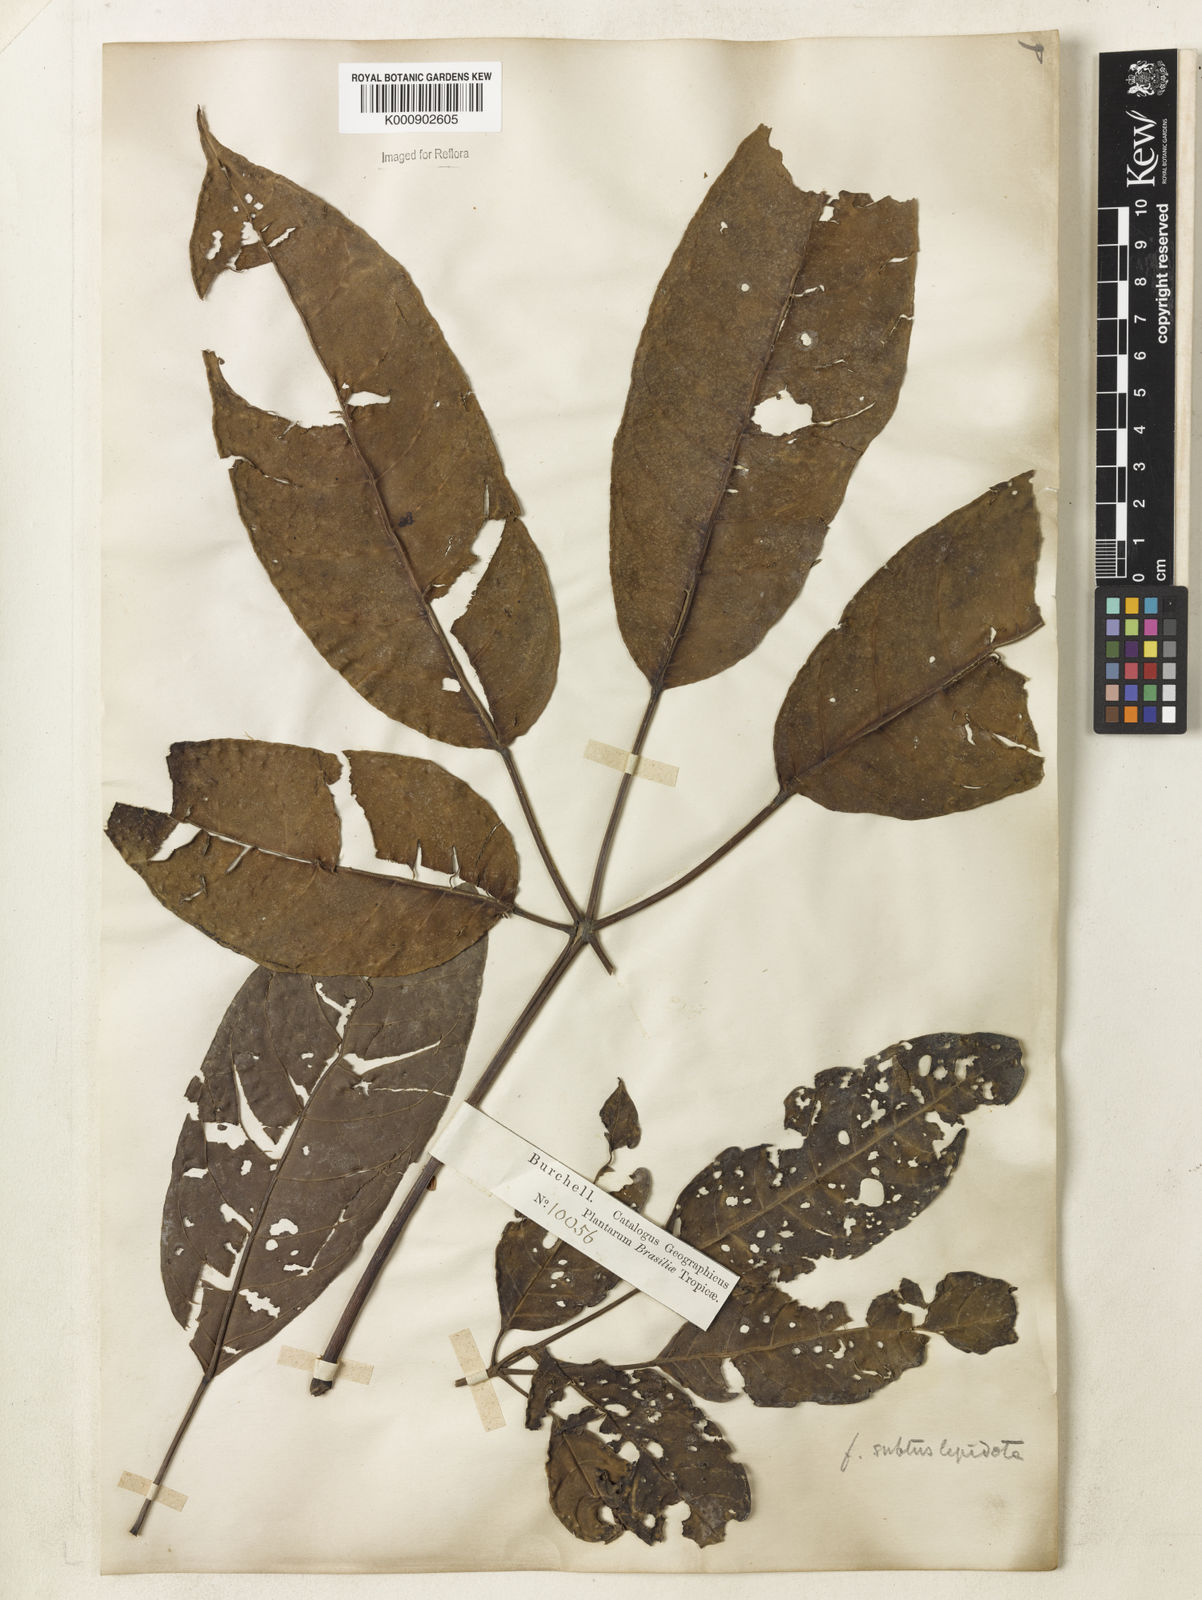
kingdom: Plantae
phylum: Tracheophyta
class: Magnoliopsida
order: Lamiales
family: Bignoniaceae
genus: Tabebuia
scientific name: Tabebuia fluviatilis
